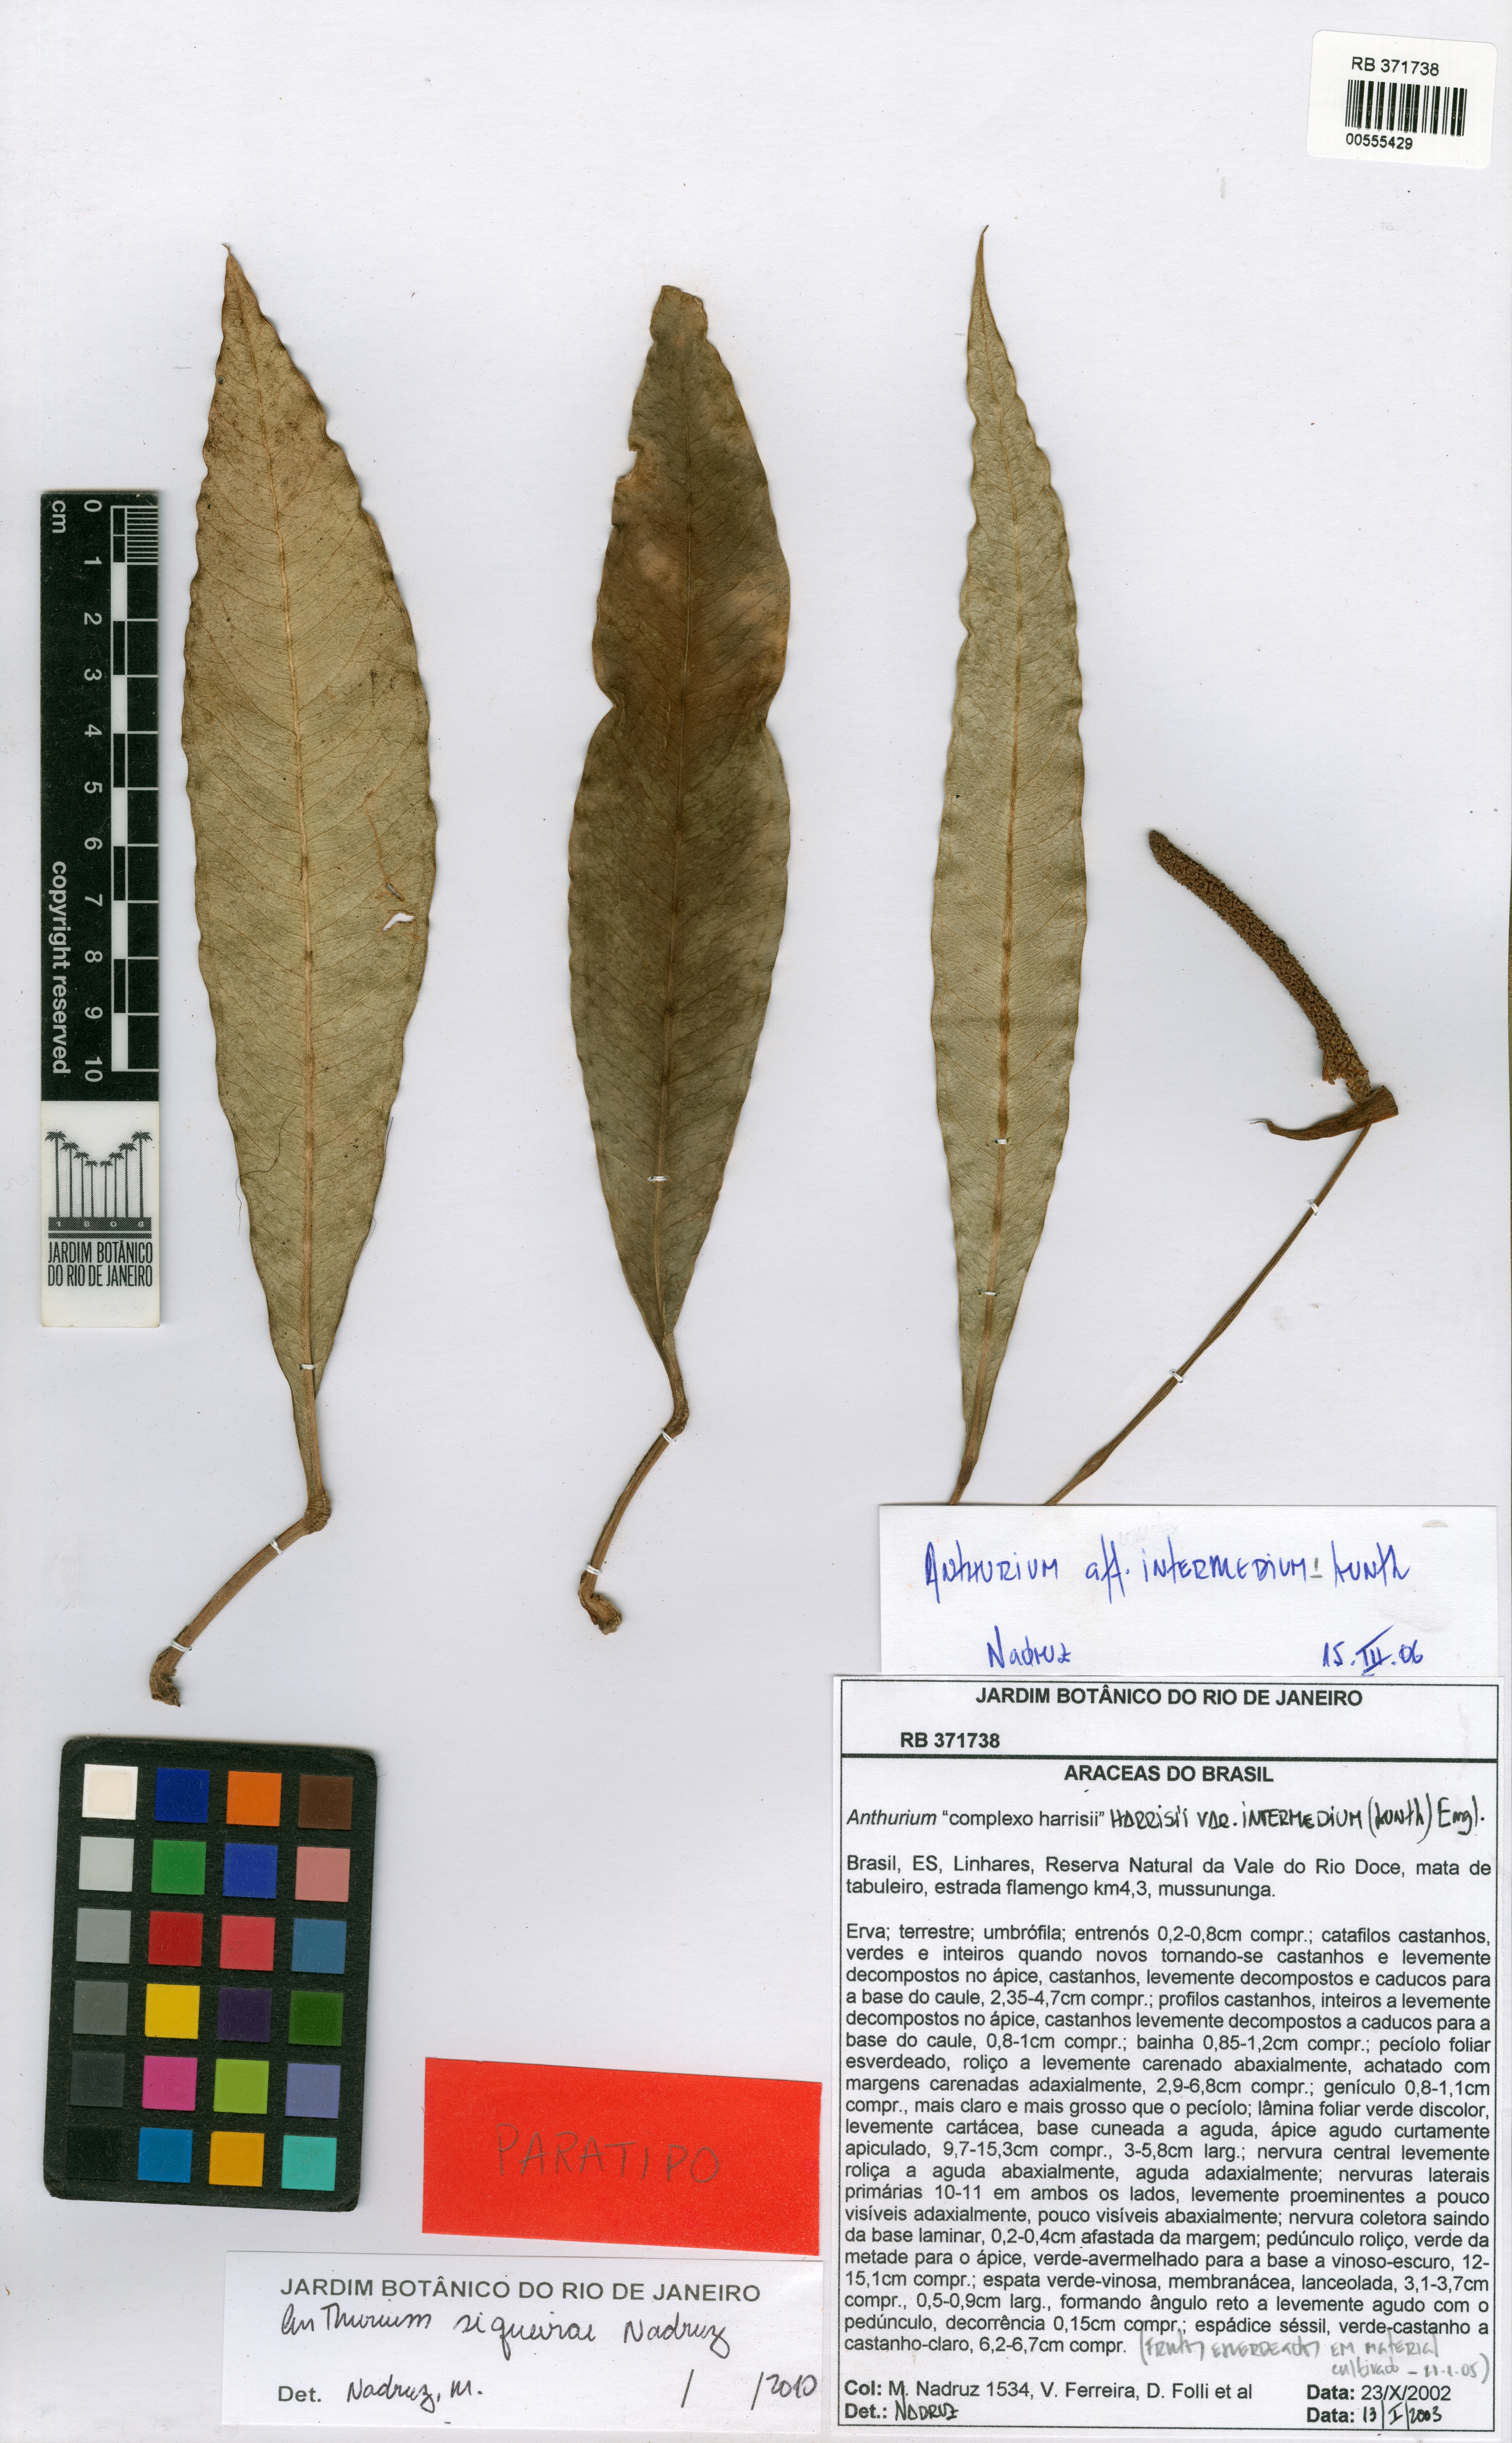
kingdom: Plantae
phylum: Tracheophyta
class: Liliopsida
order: Alismatales
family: Araceae
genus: Anthurium
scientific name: Anthurium siqueirae
